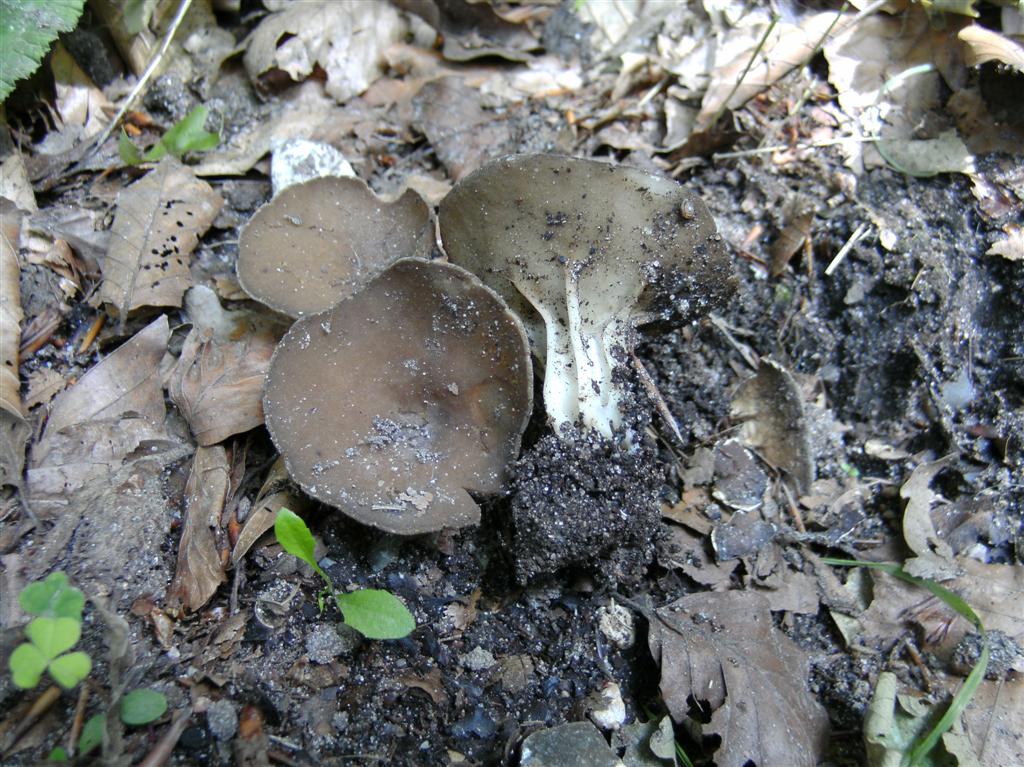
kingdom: Fungi
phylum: Ascomycota
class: Pezizomycetes
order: Pezizales
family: Helvellaceae
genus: Helvella
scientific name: Helvella acetabulum
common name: pokal-foldhat
